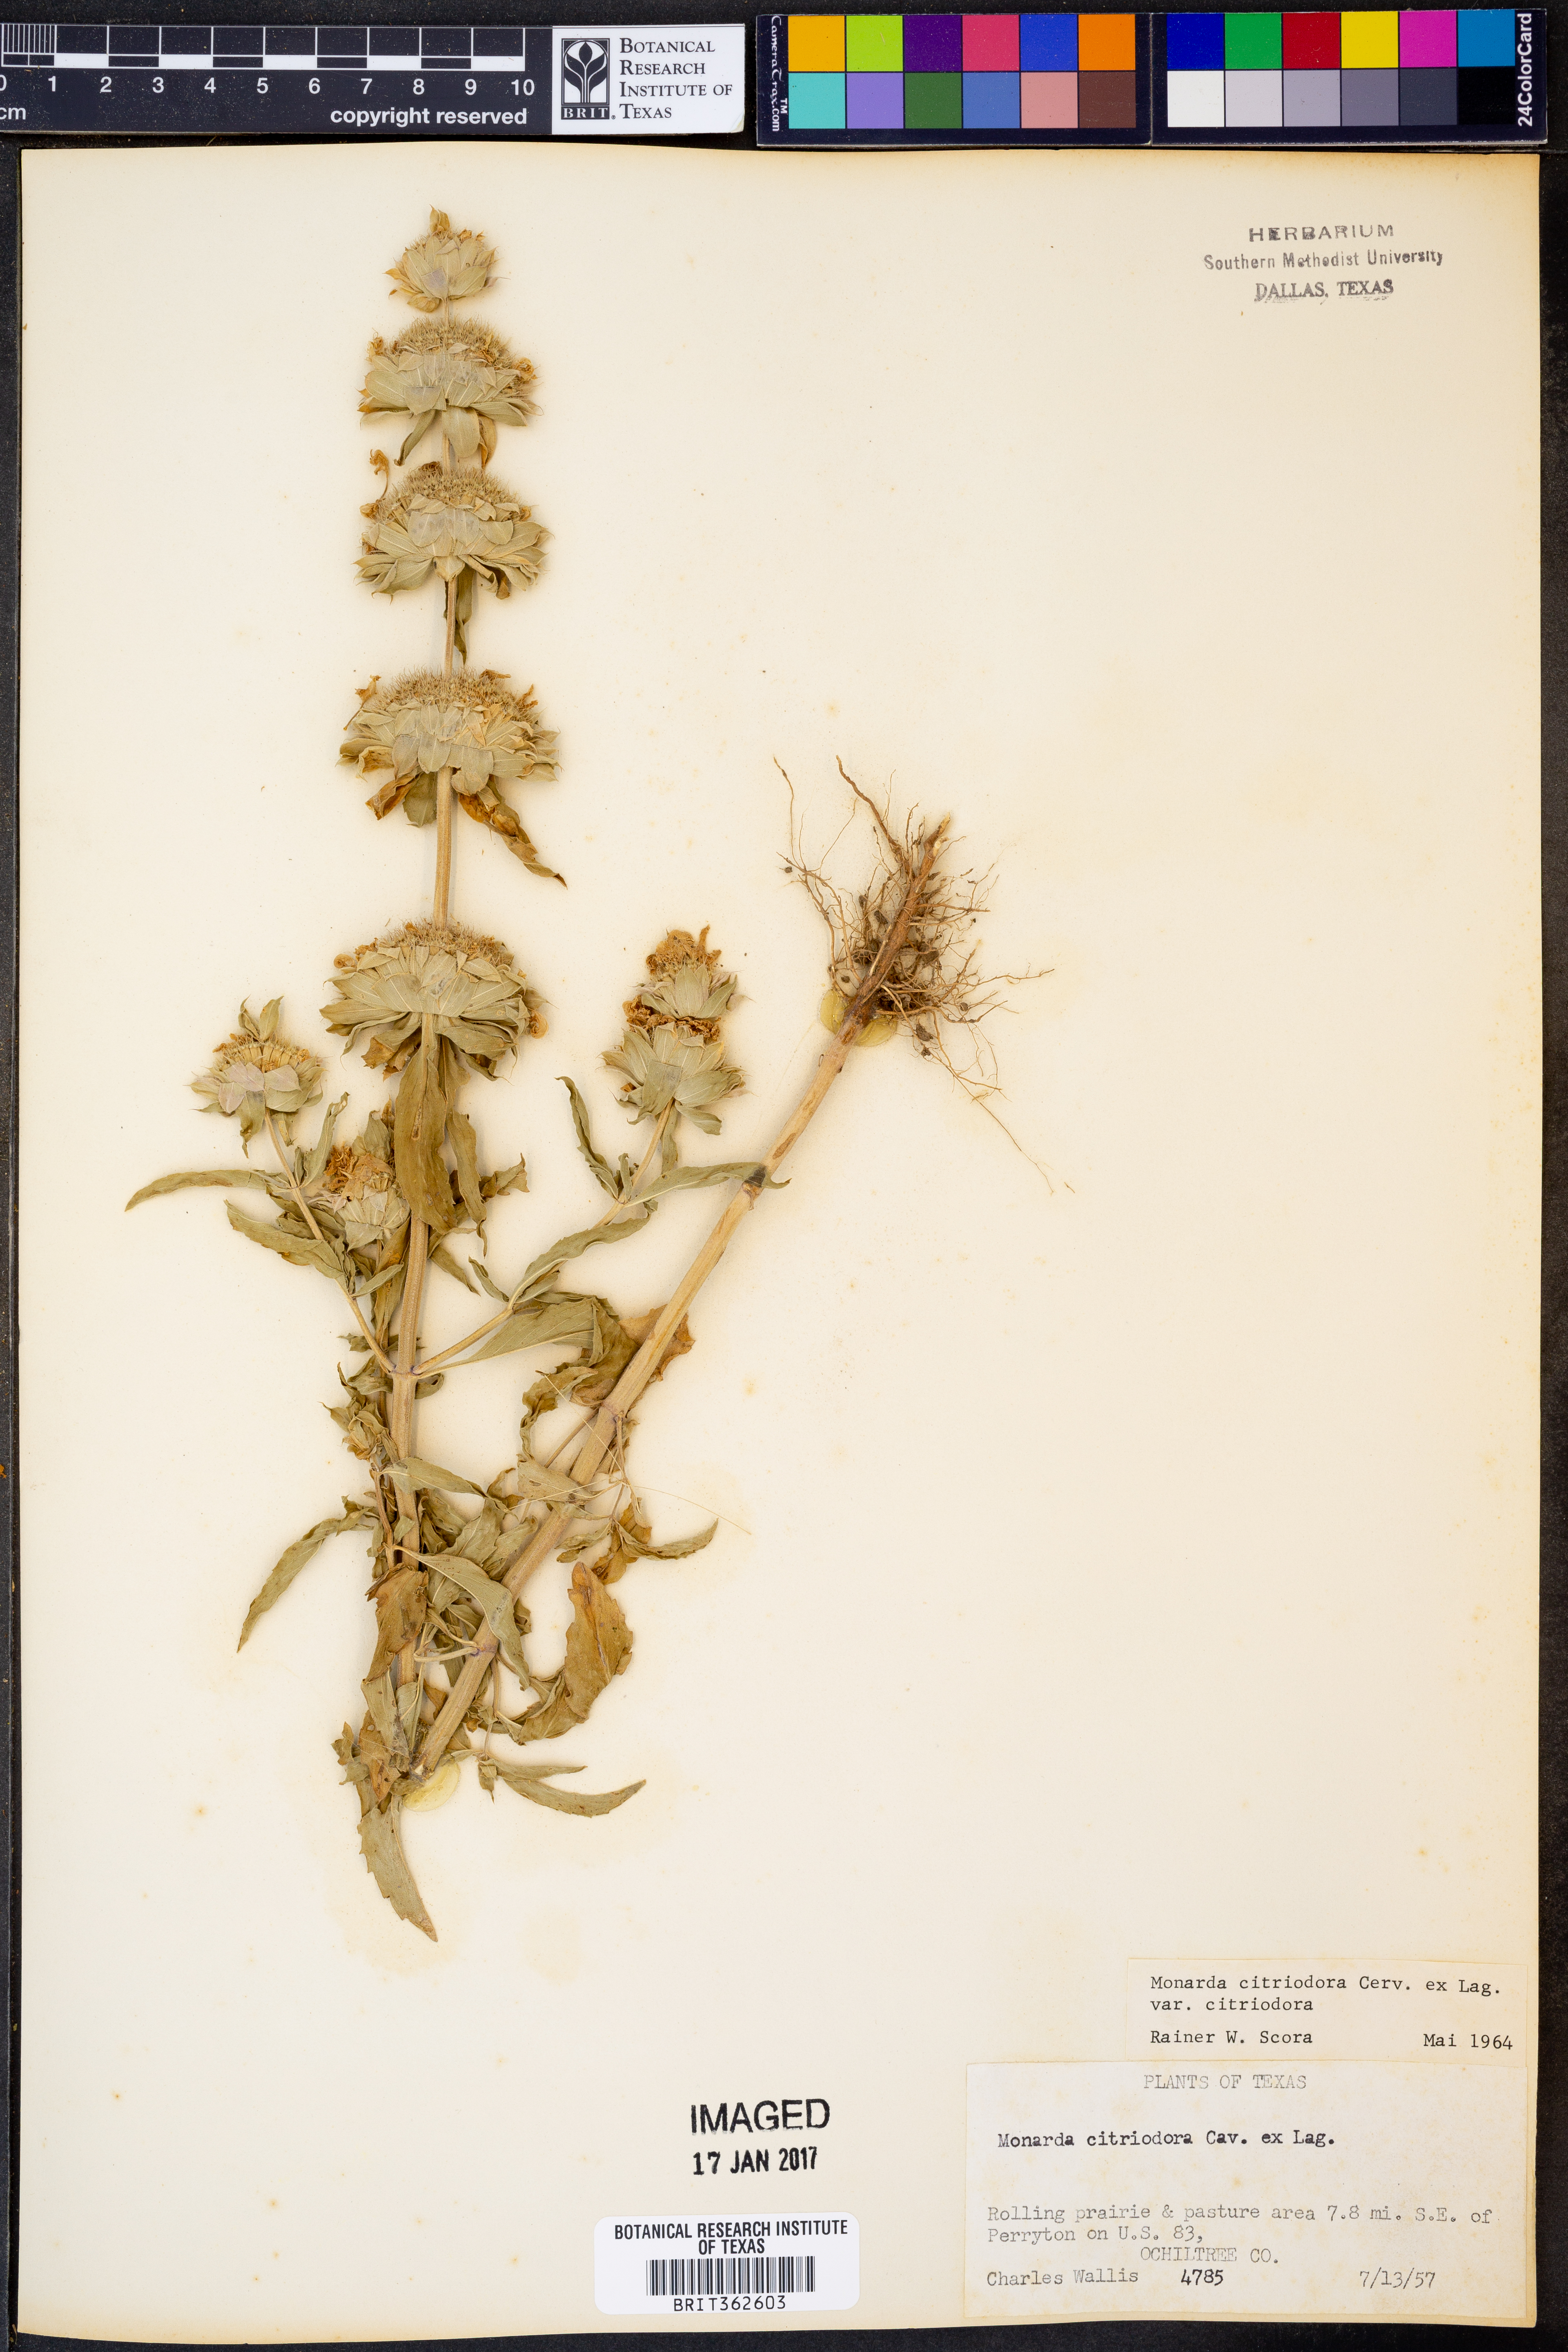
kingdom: Plantae
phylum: Tracheophyta
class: Magnoliopsida
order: Lamiales
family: Lamiaceae
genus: Monarda
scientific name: Monarda citriodora
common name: Lemon beebalm
